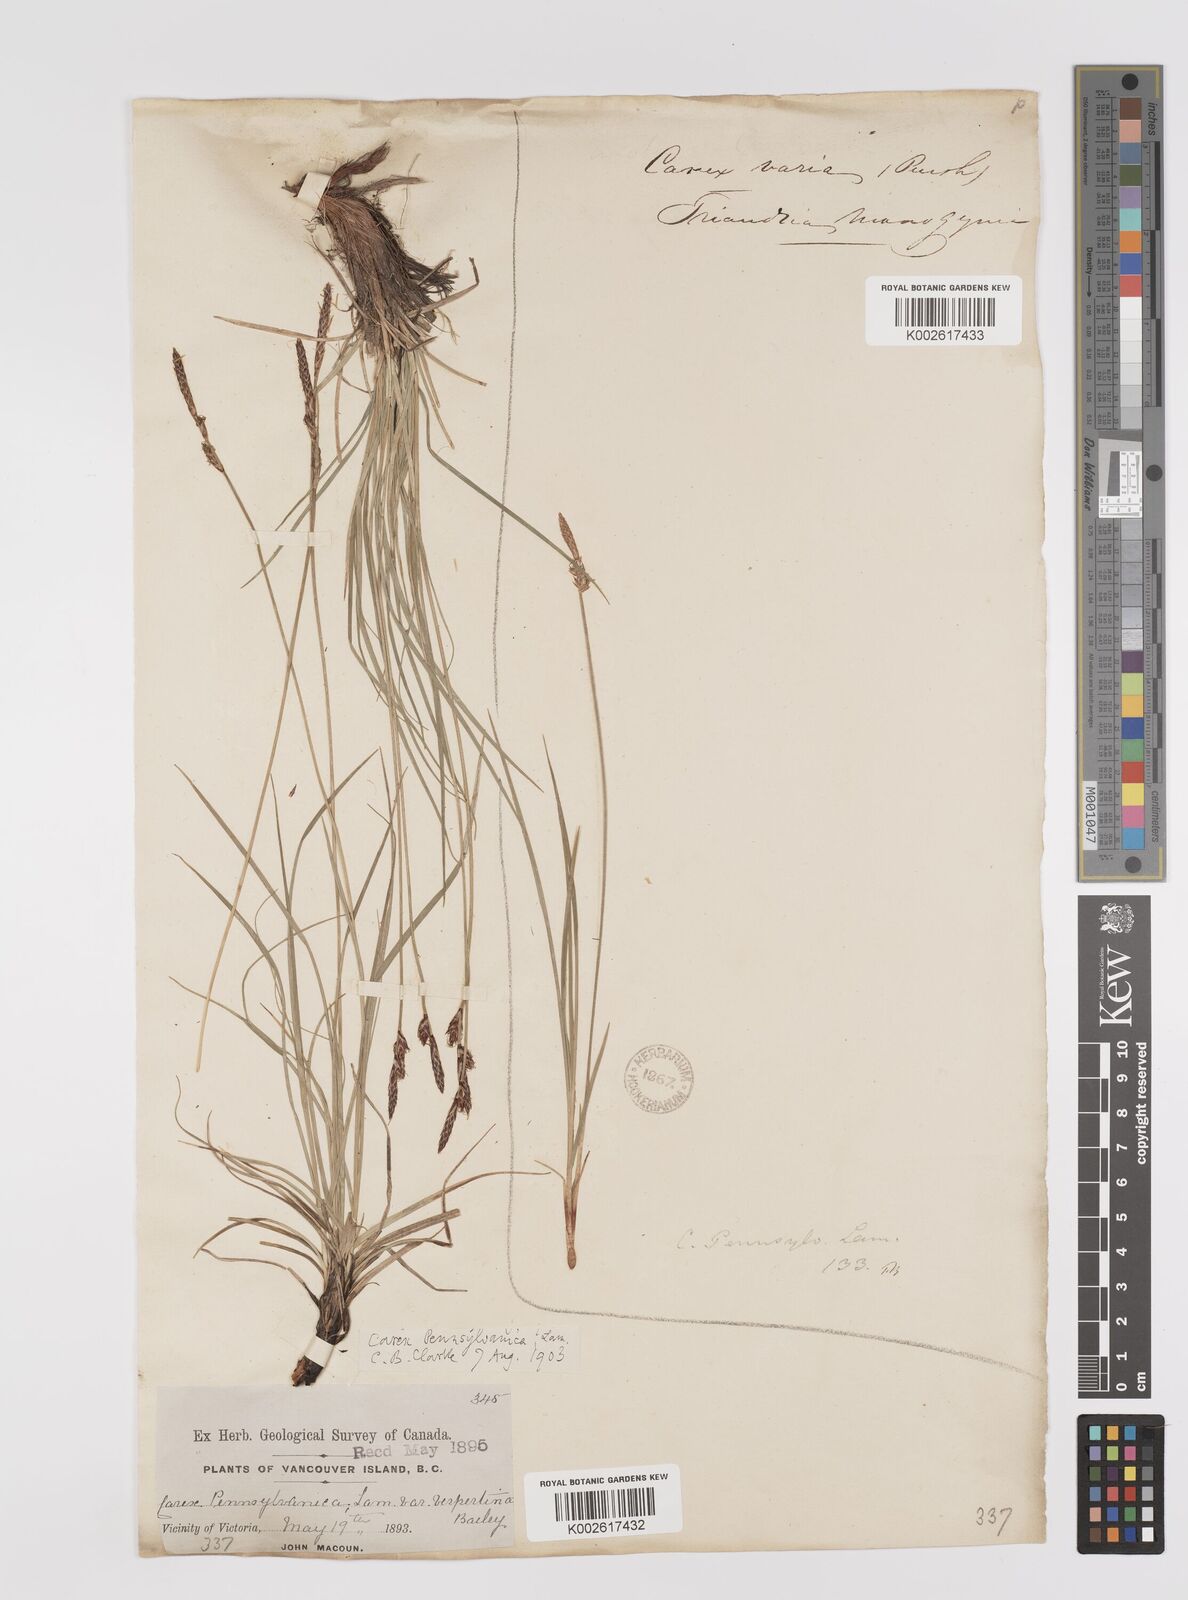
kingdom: Plantae
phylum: Tracheophyta
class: Liliopsida
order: Poales
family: Cyperaceae
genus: Carex
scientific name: Carex inops
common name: Long-stolon sedge
